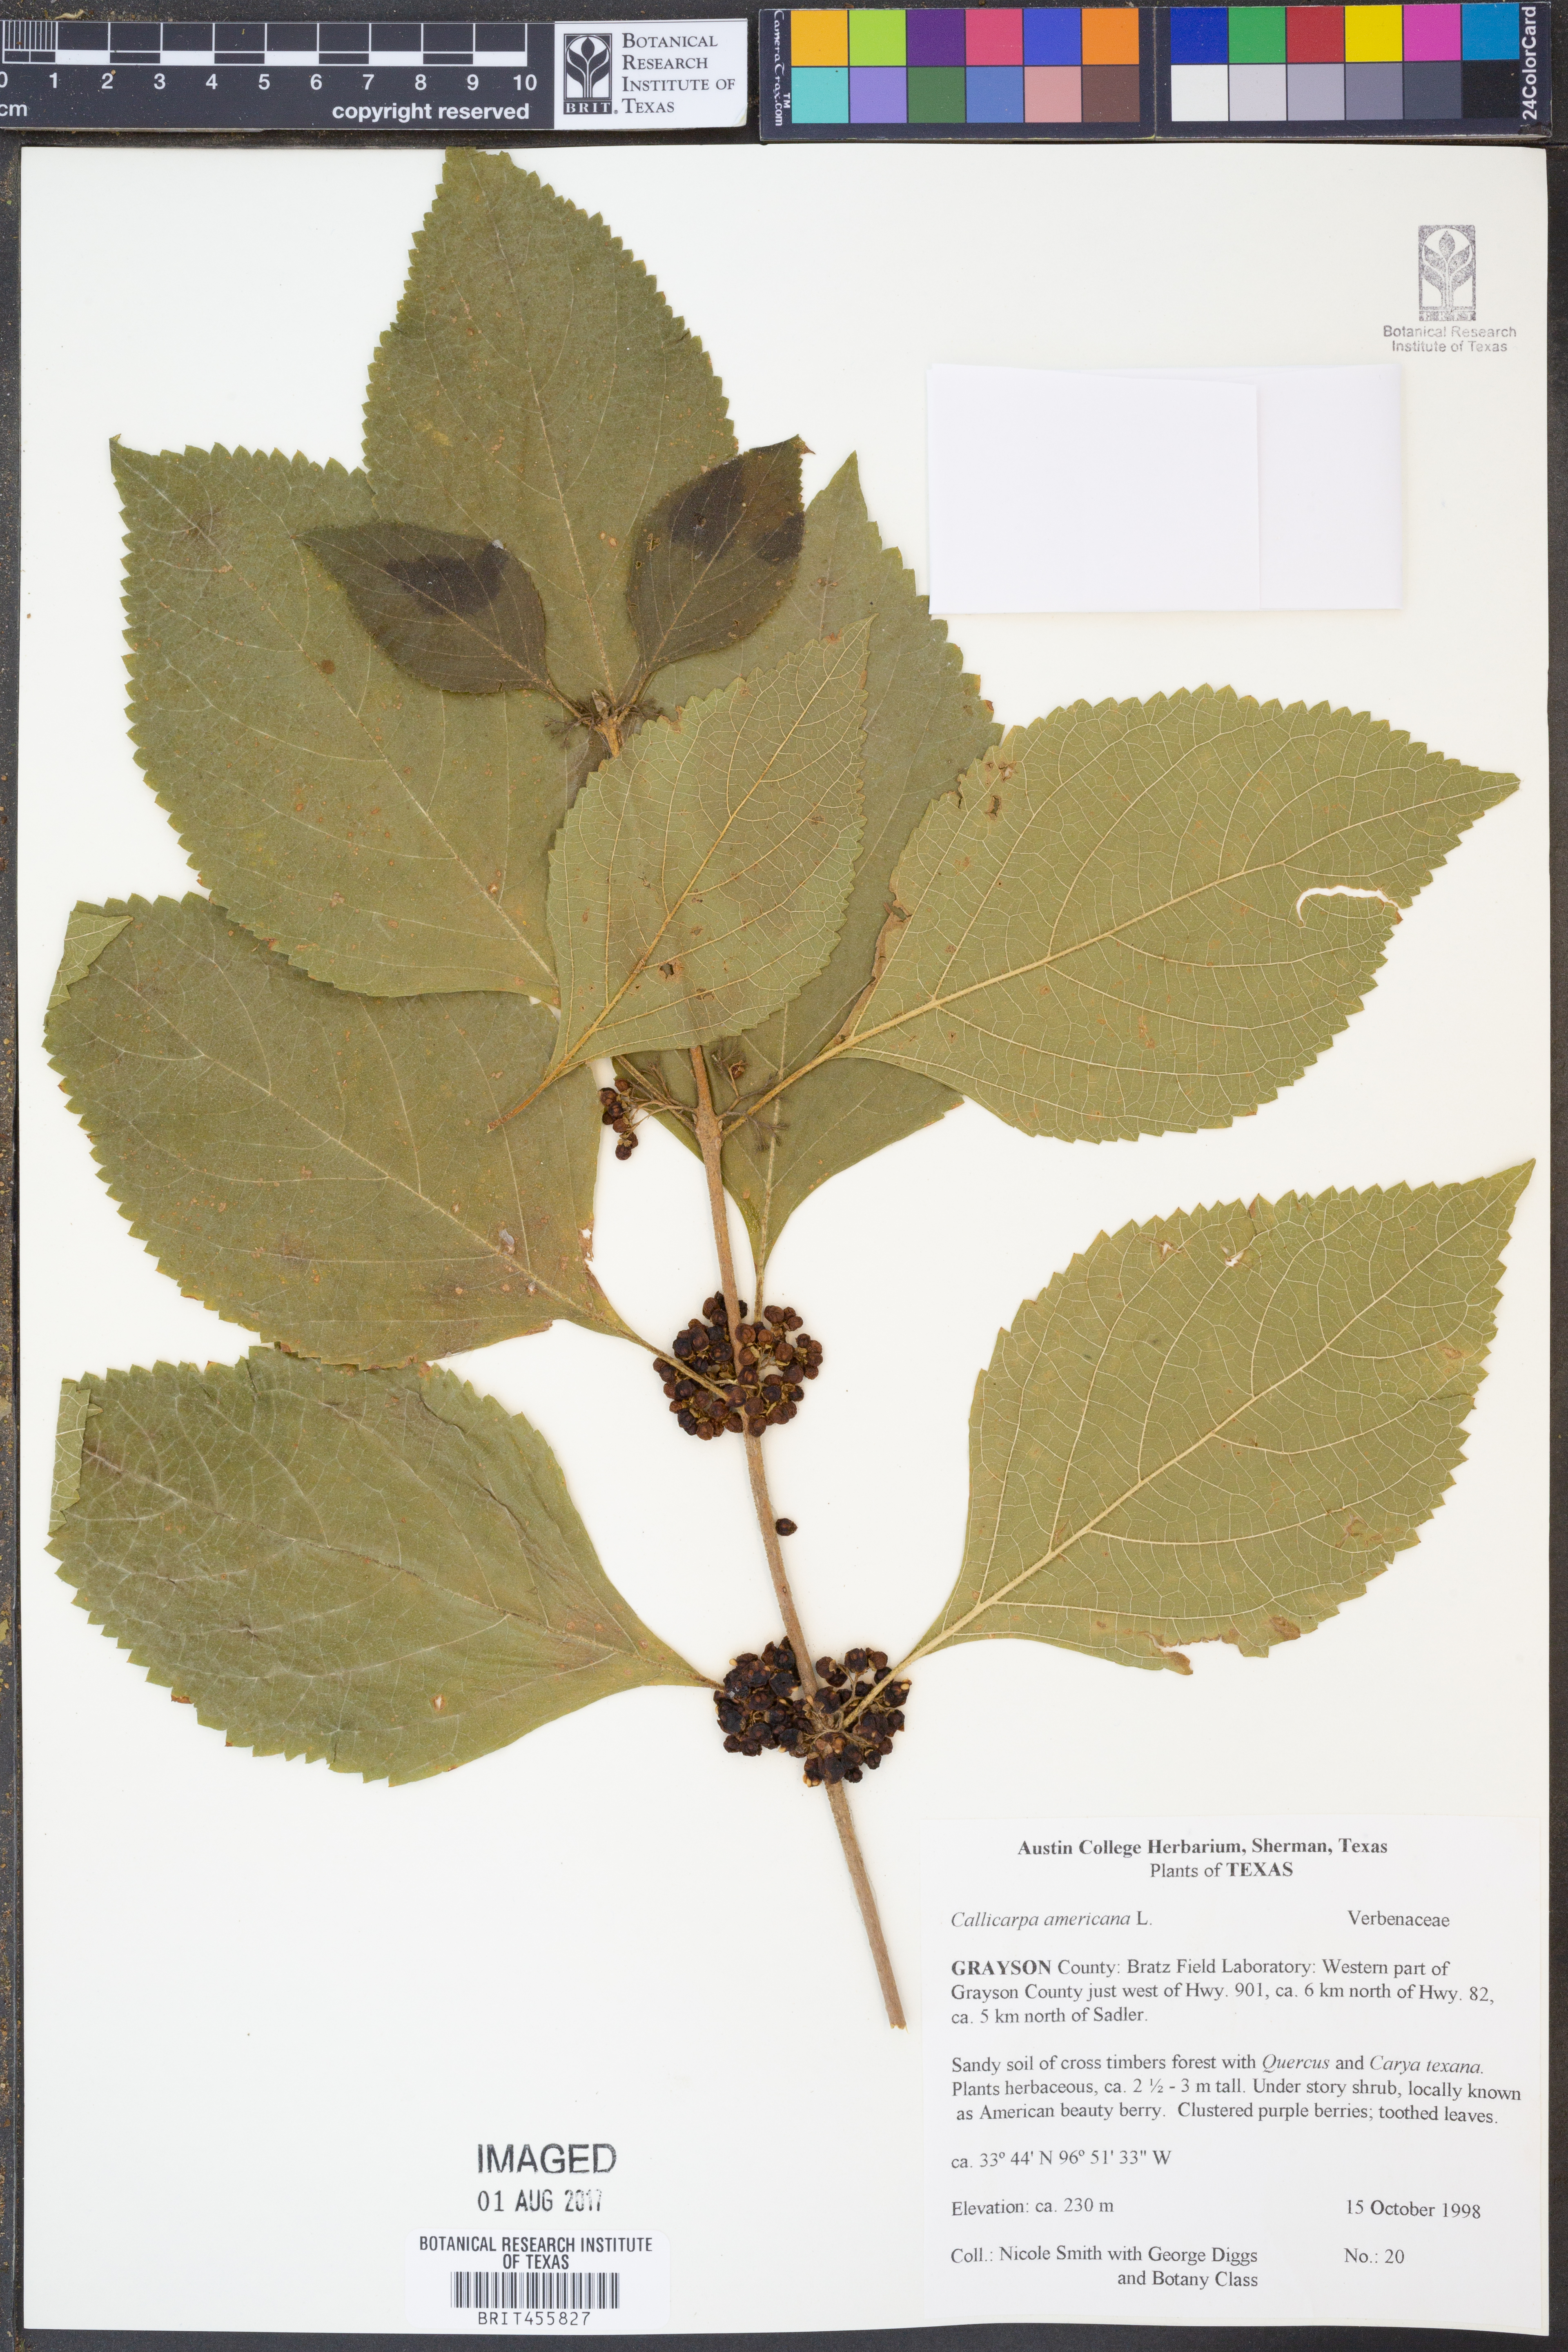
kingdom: Plantae
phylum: Tracheophyta
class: Magnoliopsida
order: Lamiales
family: Lamiaceae
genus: Callicarpa
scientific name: Callicarpa americana
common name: American beautyberry
